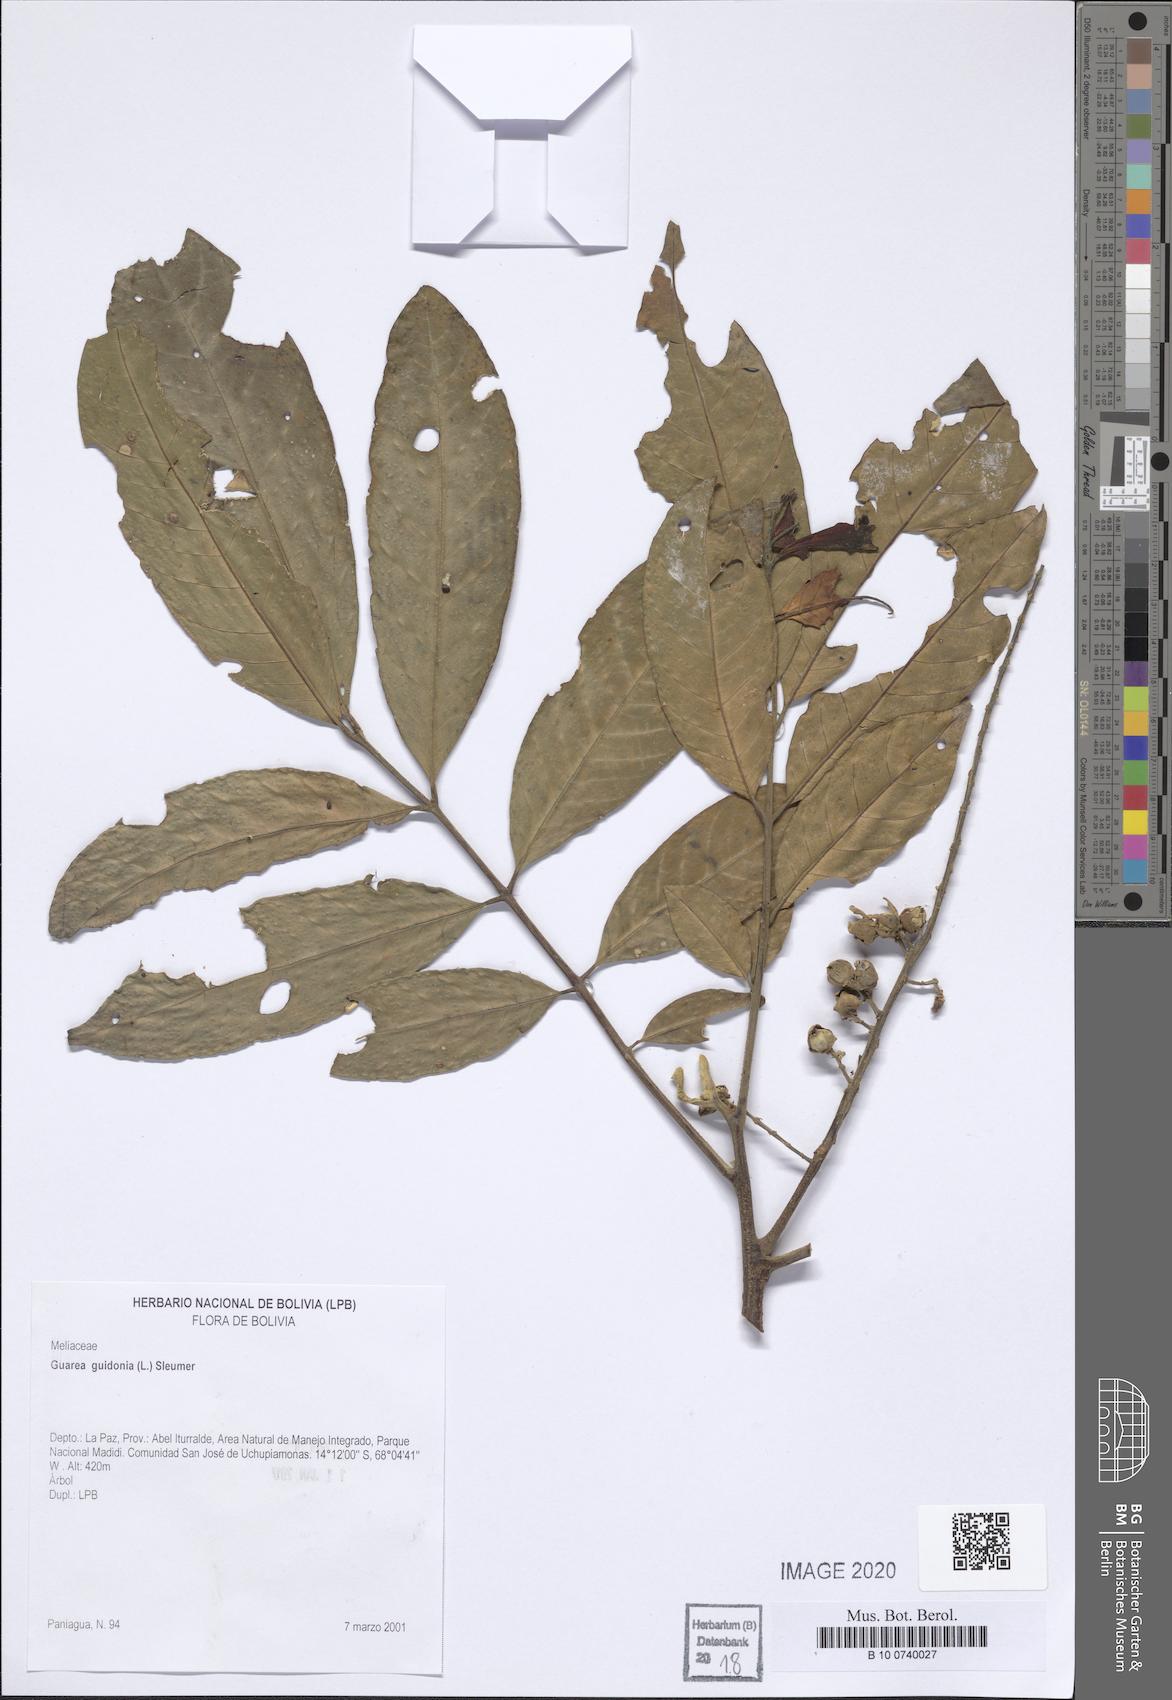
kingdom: Plantae
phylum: Tracheophyta
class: Magnoliopsida
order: Sapindales
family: Meliaceae
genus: Guarea
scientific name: Guarea guidonia
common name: American muskwood
